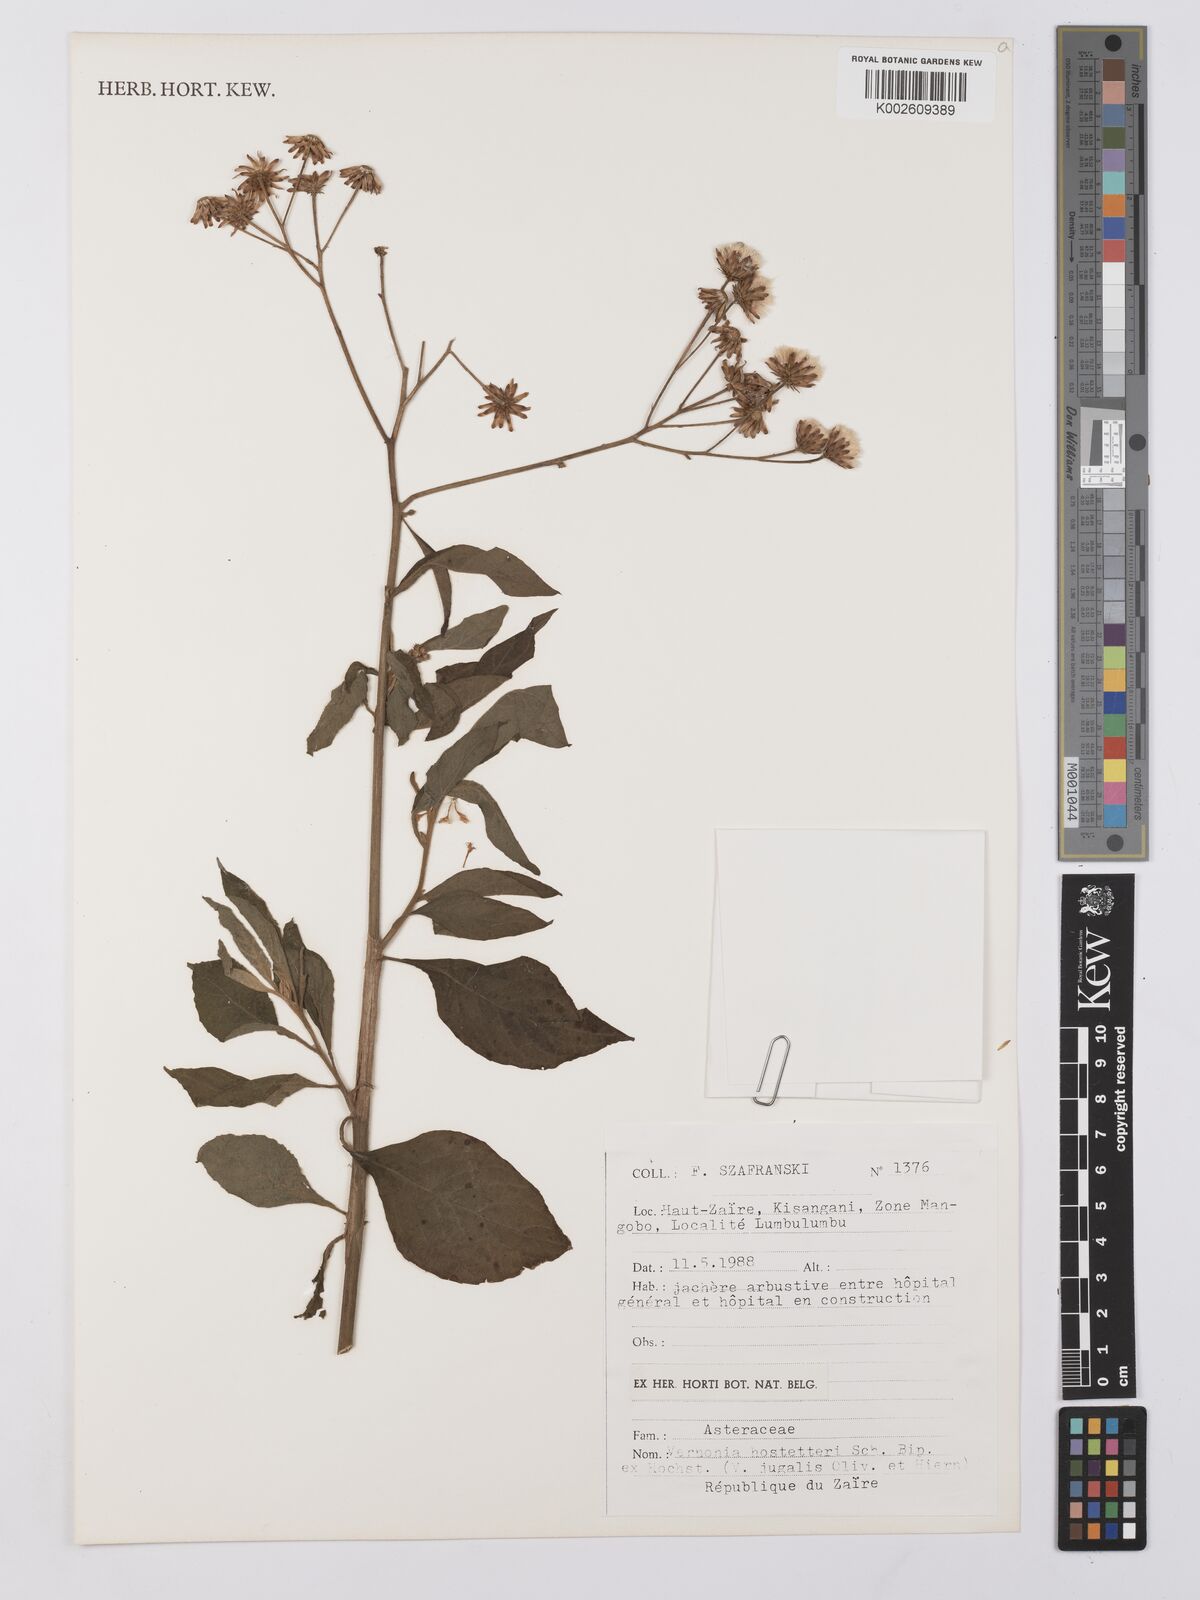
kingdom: Plantae
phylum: Tracheophyta
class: Magnoliopsida
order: Asterales
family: Asteraceae
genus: Vernonia
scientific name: Vernonia
